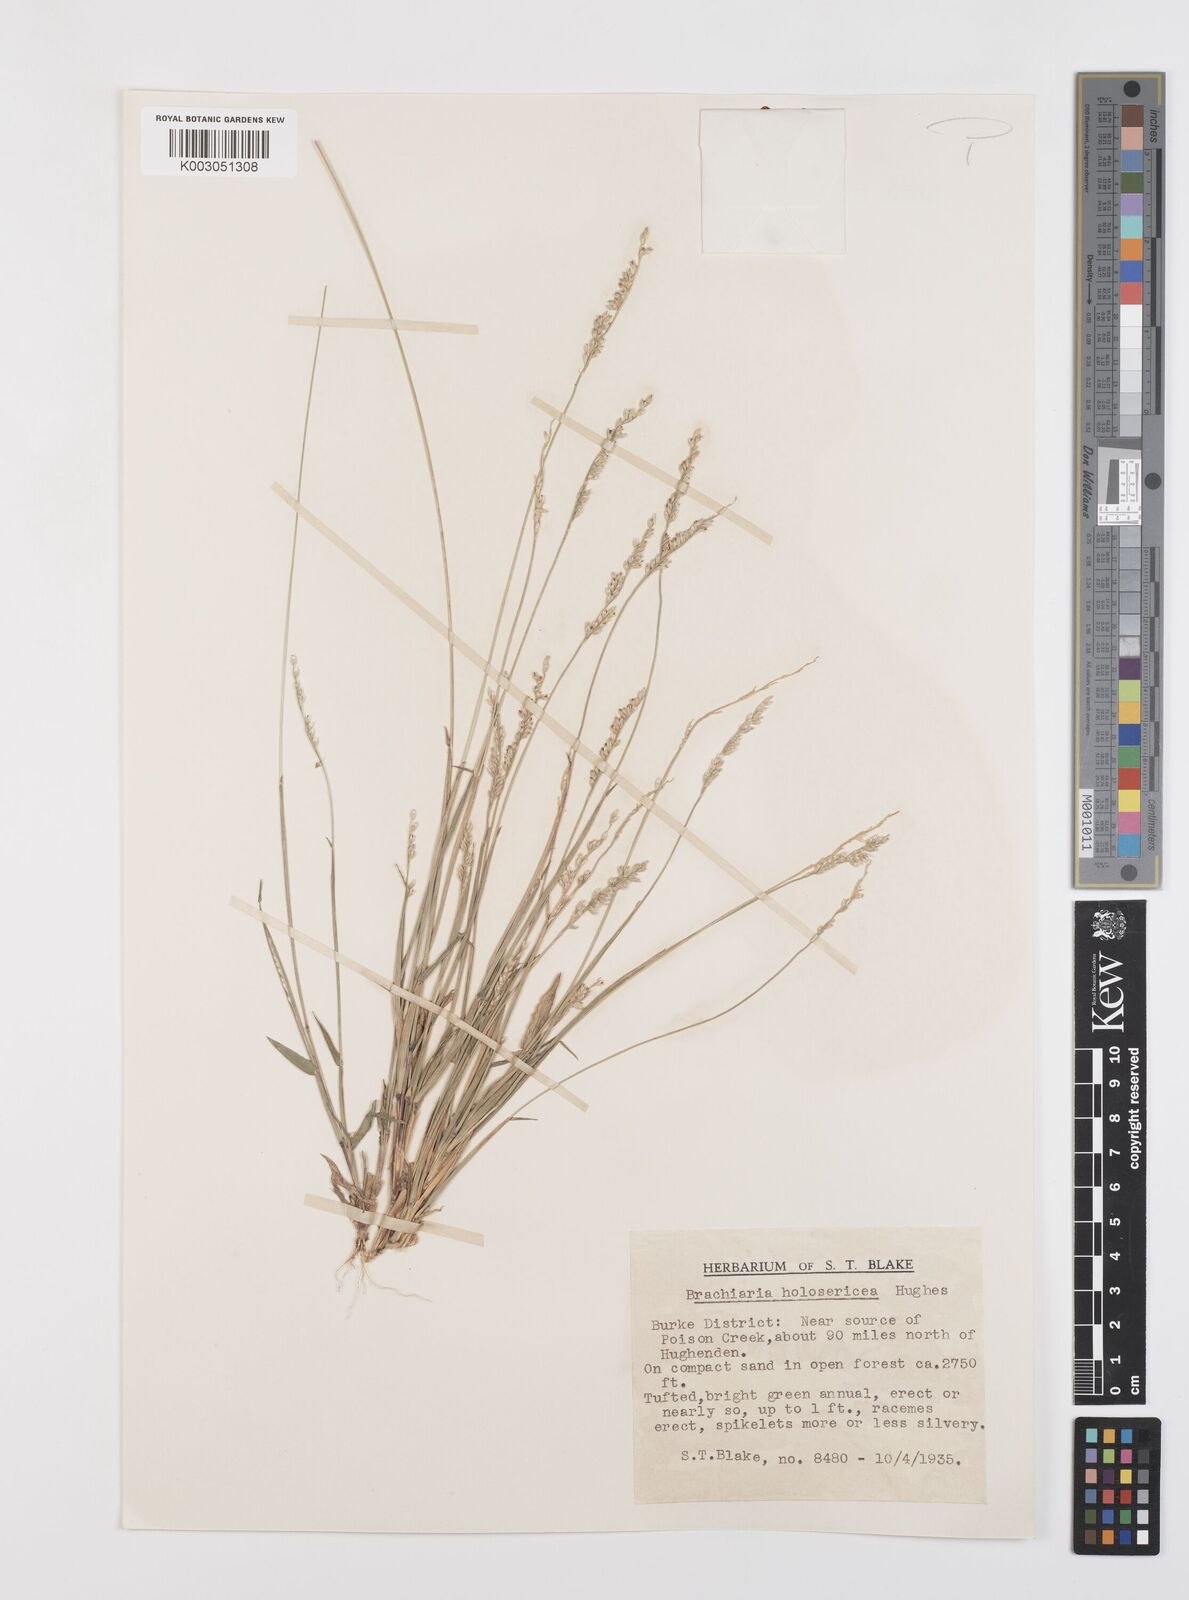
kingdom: Plantae
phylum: Tracheophyta
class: Liliopsida
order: Poales
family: Poaceae
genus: Urochloa
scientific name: Urochloa holosericea
